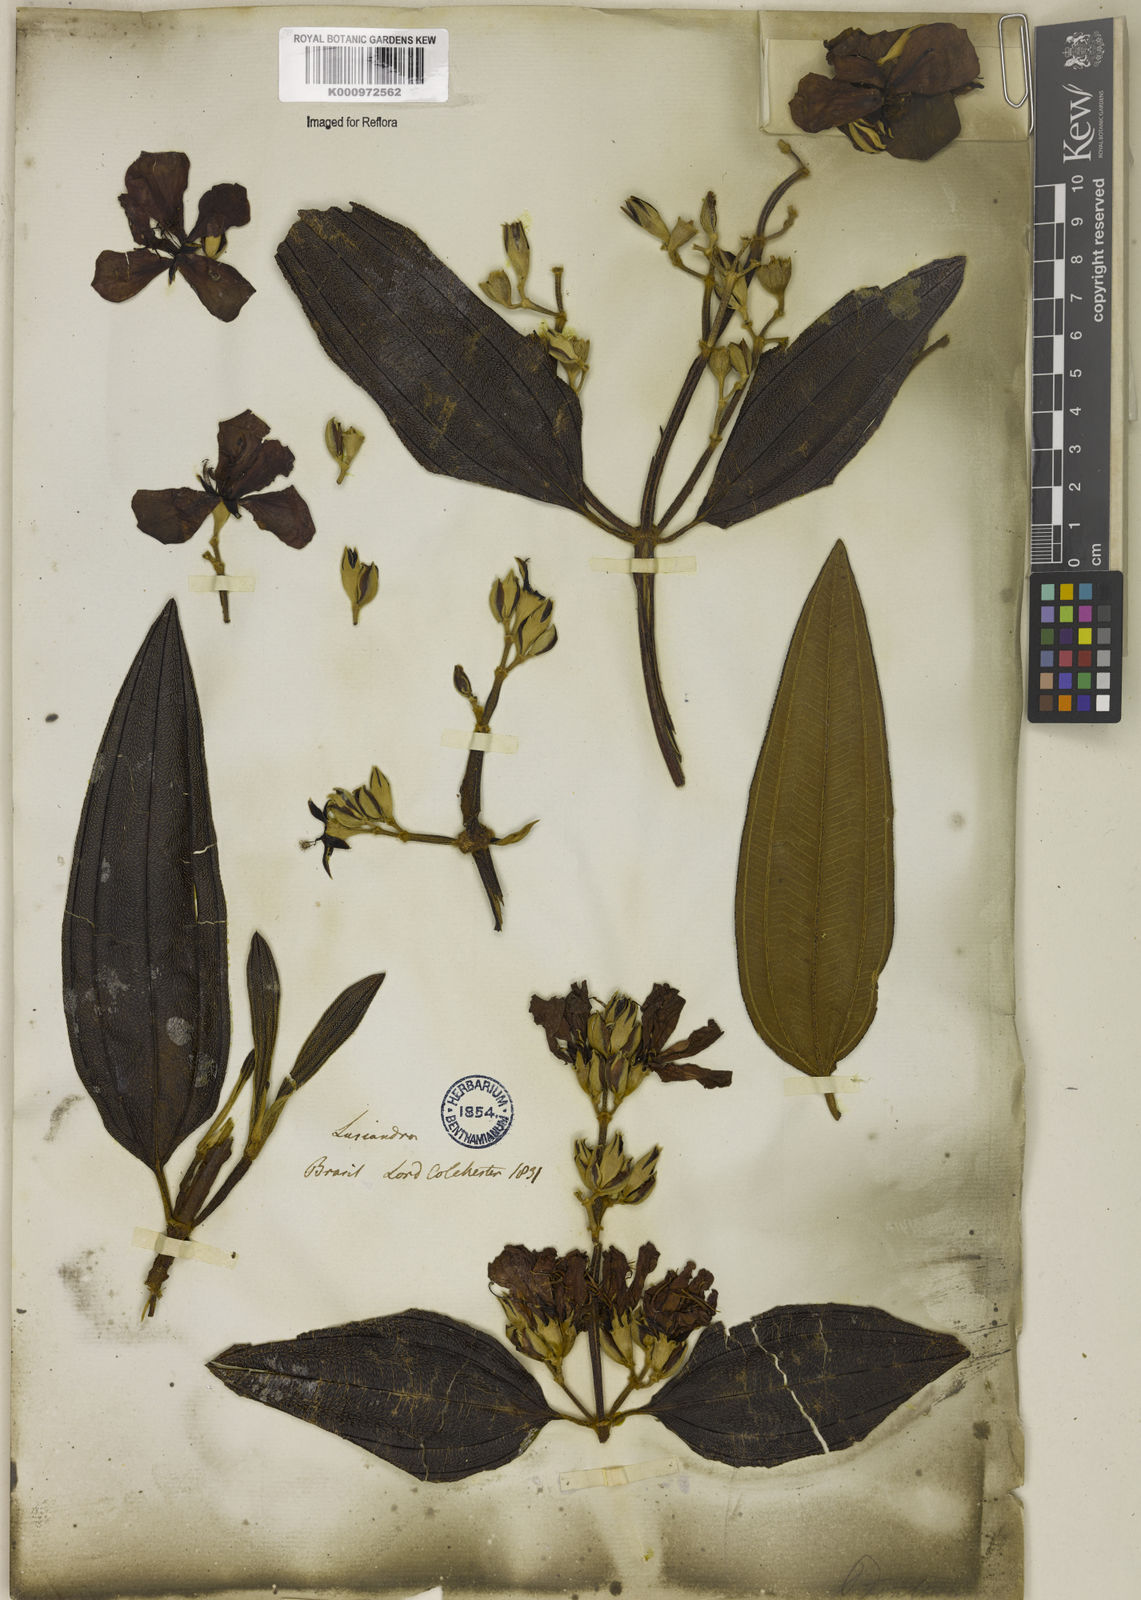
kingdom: Plantae
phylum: Tracheophyta
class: Magnoliopsida
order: Myrtales
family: Melastomataceae
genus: Pleroma
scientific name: Pleroma granulosum
